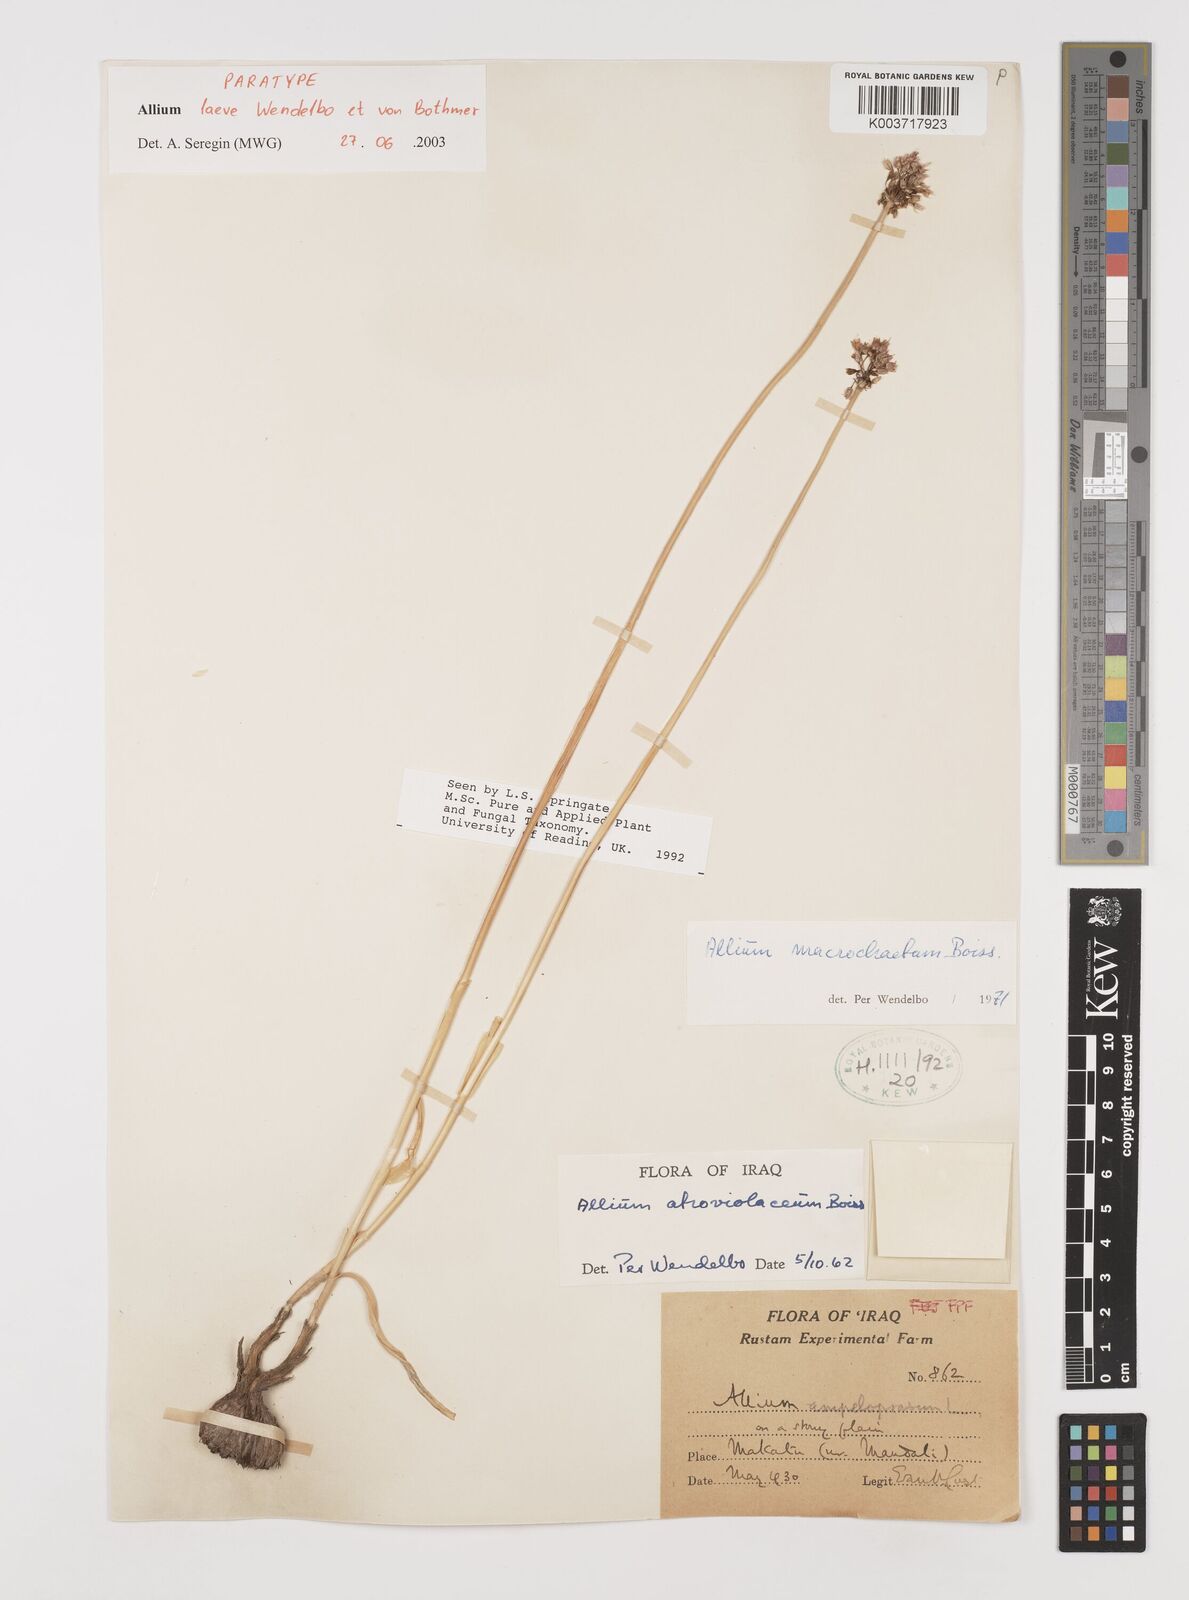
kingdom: Plantae
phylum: Tracheophyta
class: Liliopsida
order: Asparagales
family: Amaryllidaceae
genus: Allium
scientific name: Allium macrochaetum
